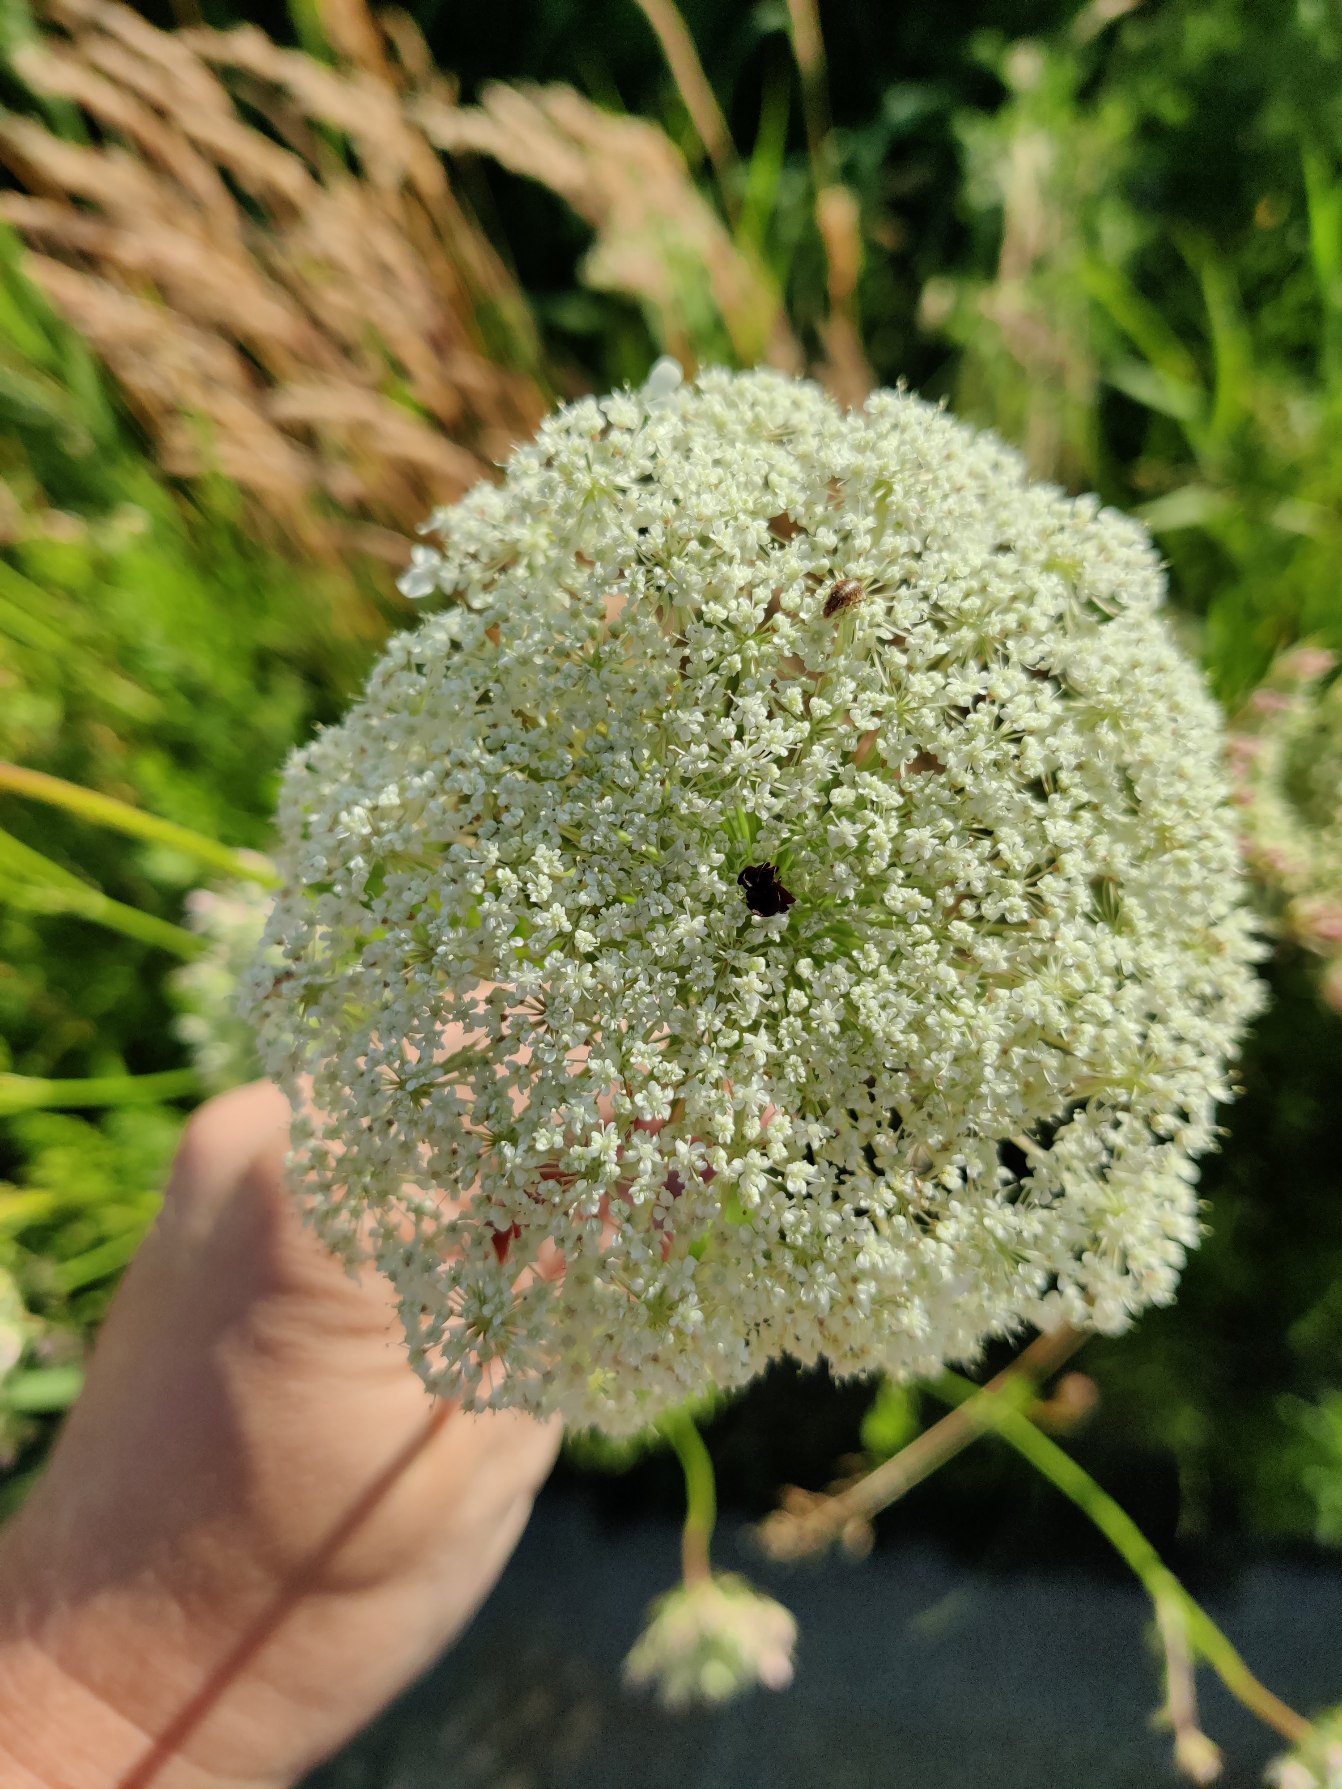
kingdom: Plantae
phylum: Tracheophyta
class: Magnoliopsida
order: Apiales
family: Apiaceae
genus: Daucus
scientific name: Daucus carota
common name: Gulerod
